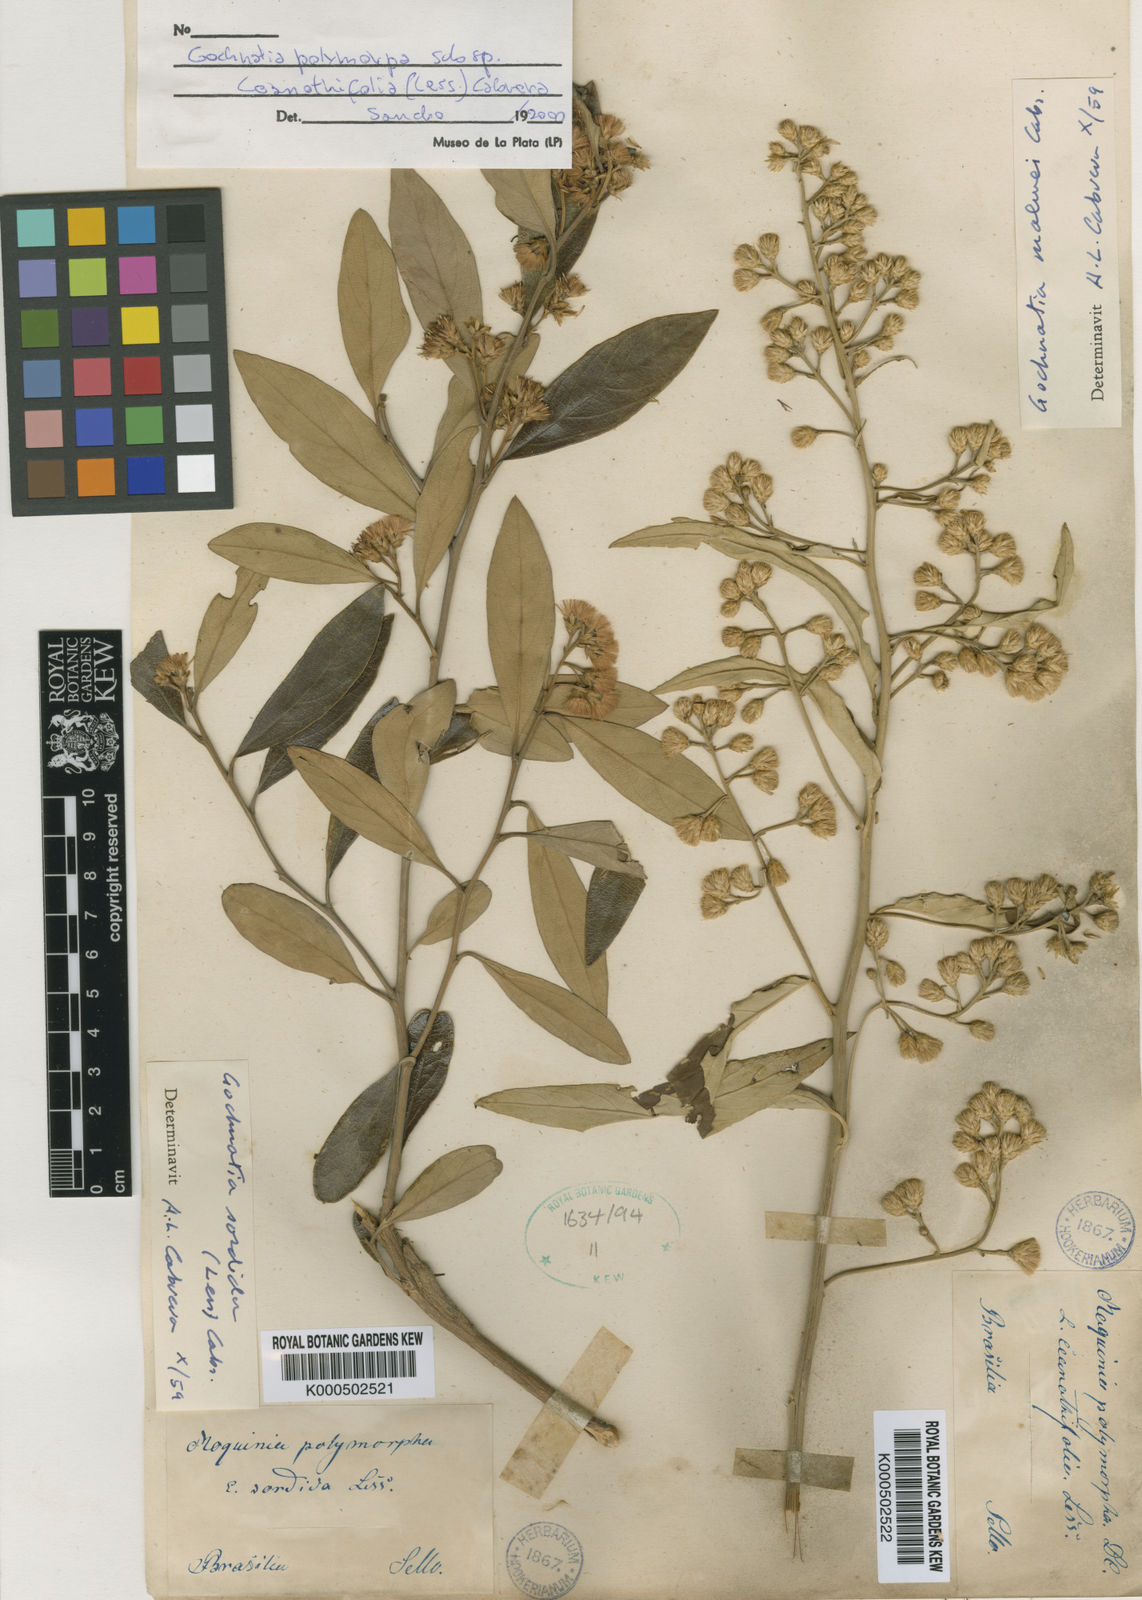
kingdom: Plantae
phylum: Tracheophyta
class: Magnoliopsida
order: Asterales
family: Asteraceae
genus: Moquiniastrum
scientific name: Moquiniastrum sordidum
